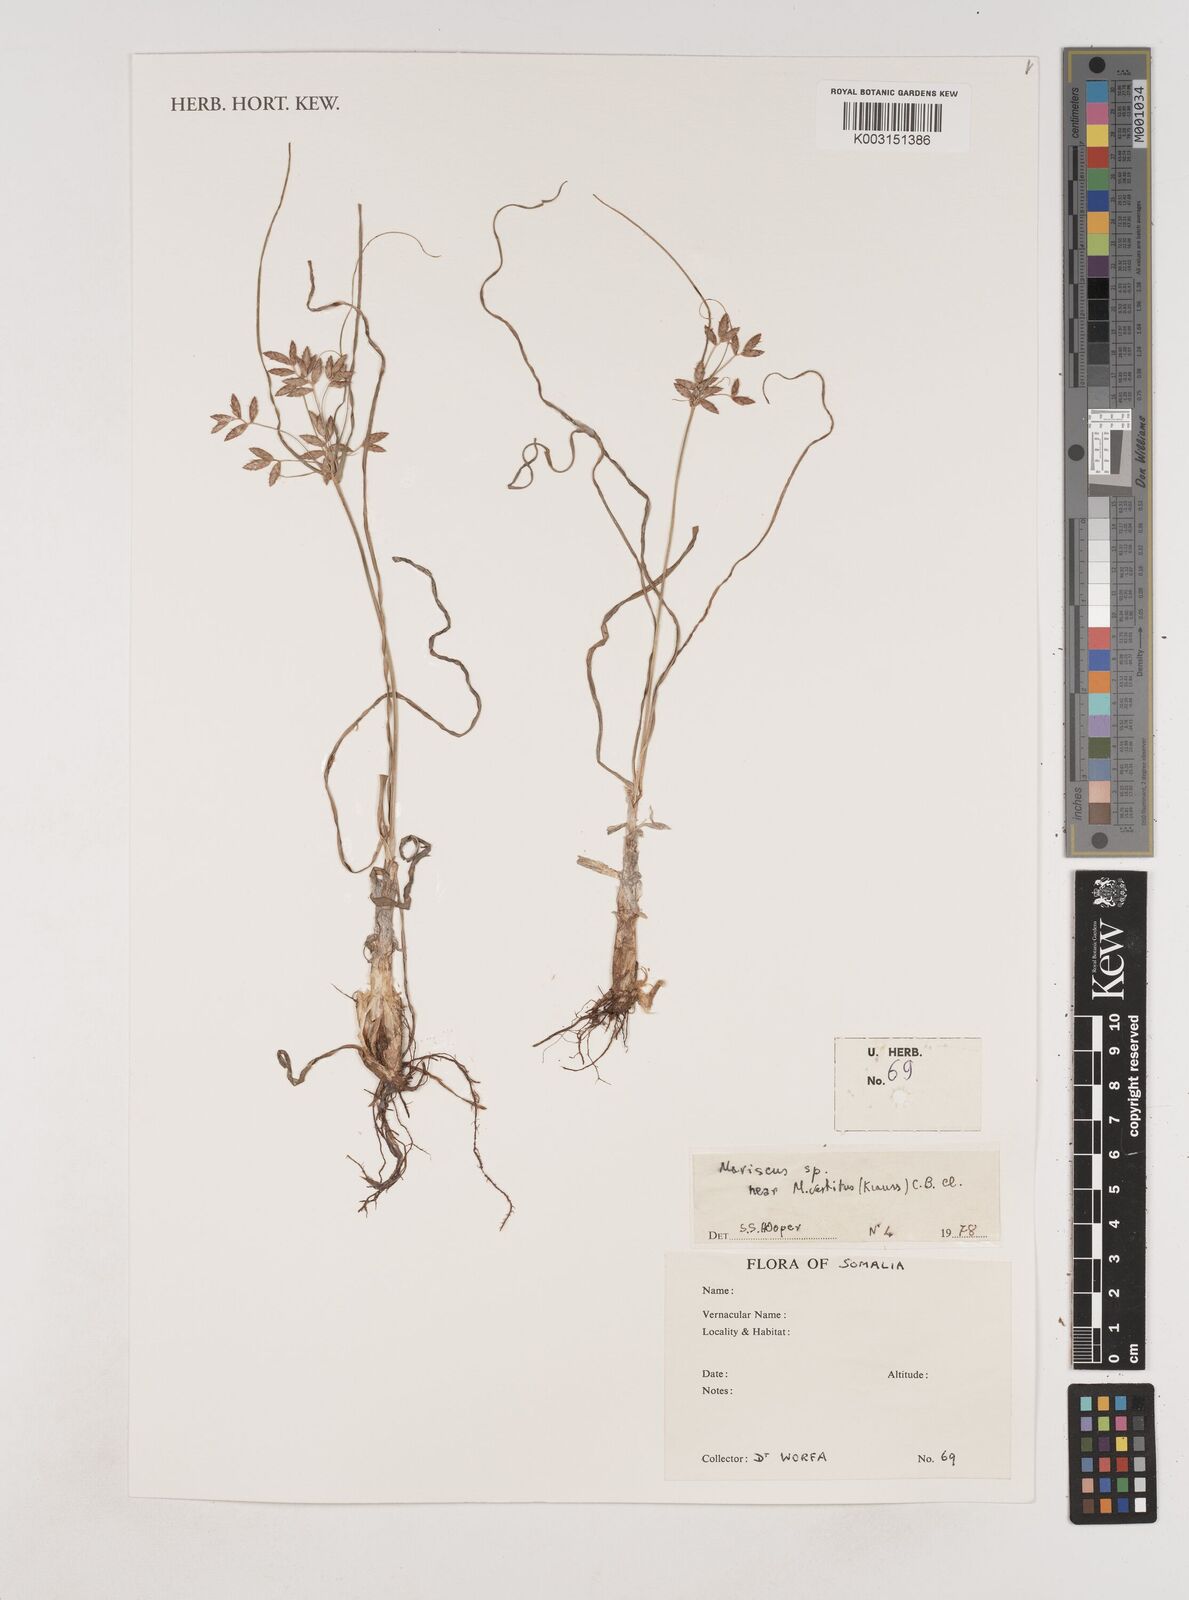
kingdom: Plantae
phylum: Tracheophyta
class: Liliopsida
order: Poales
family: Cyperaceae
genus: Cyperus
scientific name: Cyperus vestitus
